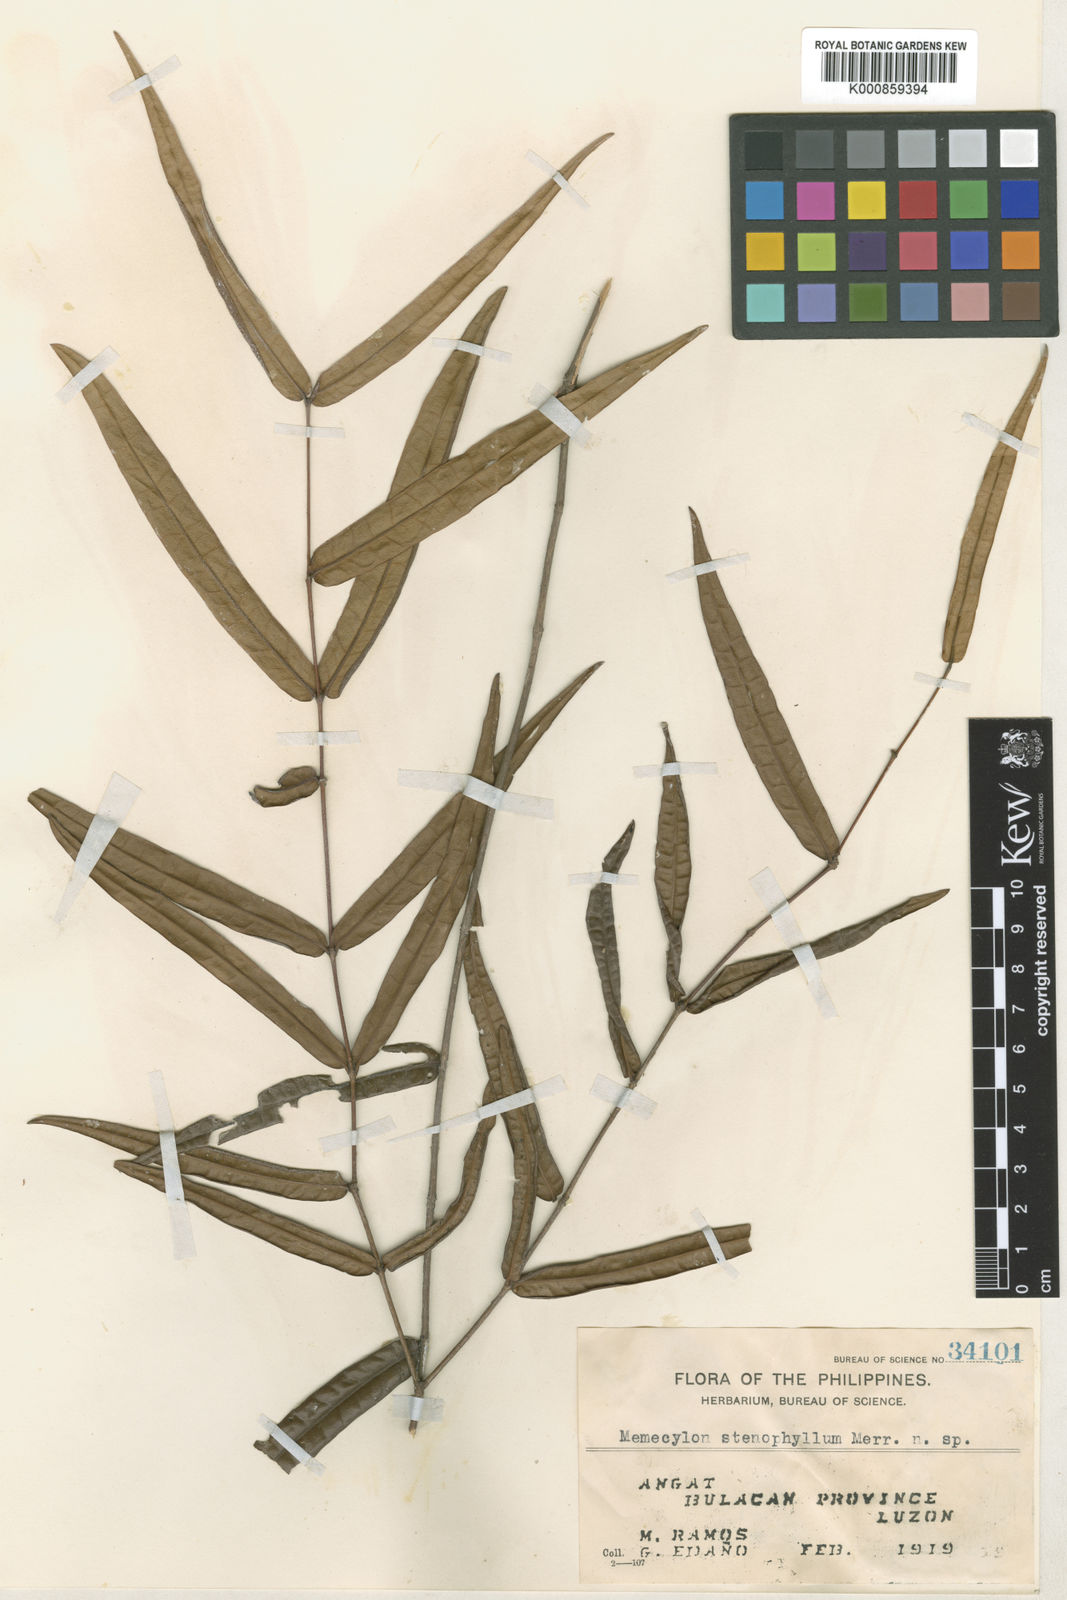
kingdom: Plantae
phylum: Tracheophyta
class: Magnoliopsida
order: Myrtales
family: Melastomataceae
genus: Memecylon
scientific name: Memecylon stenophyllum
